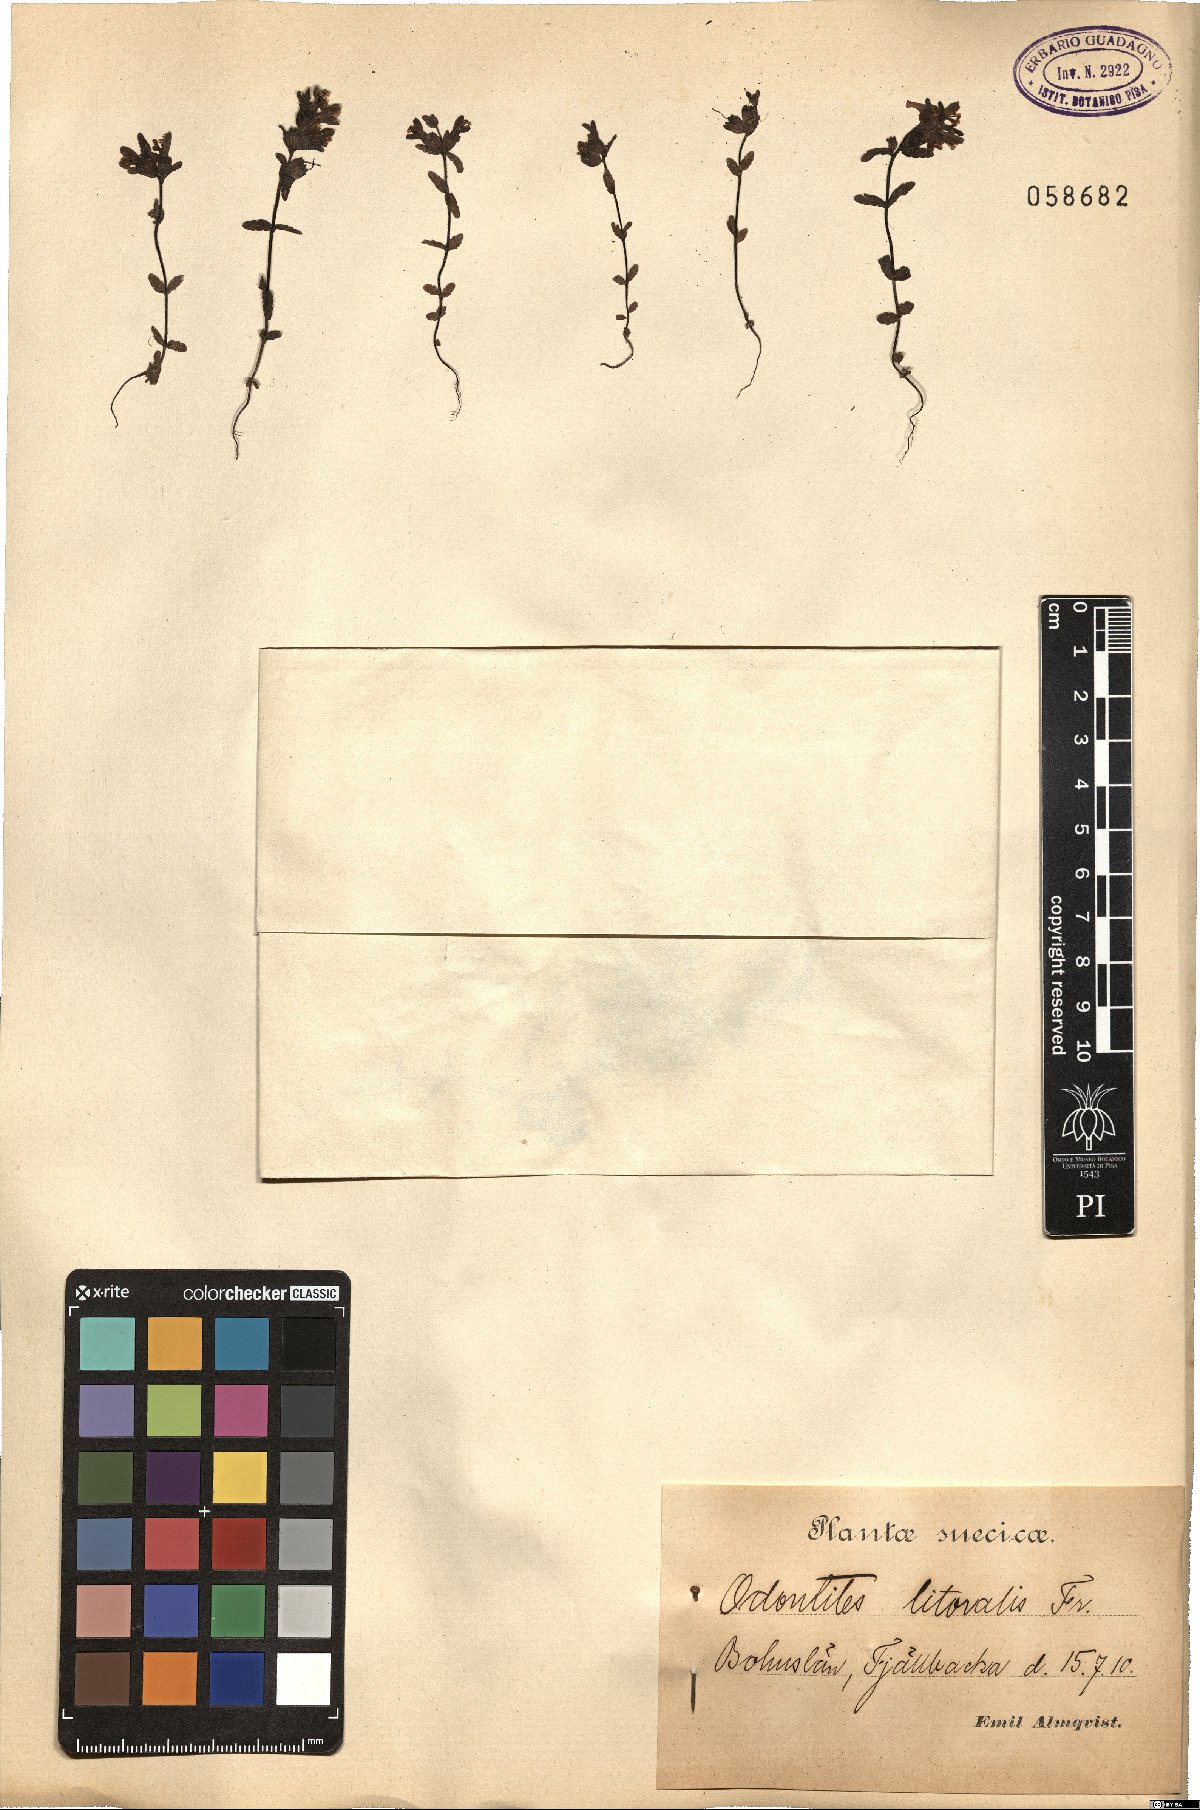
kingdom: Plantae
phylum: Tracheophyta
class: Magnoliopsida
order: Lamiales
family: Orobanchaceae
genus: Odontites
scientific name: Odontites litoralis
